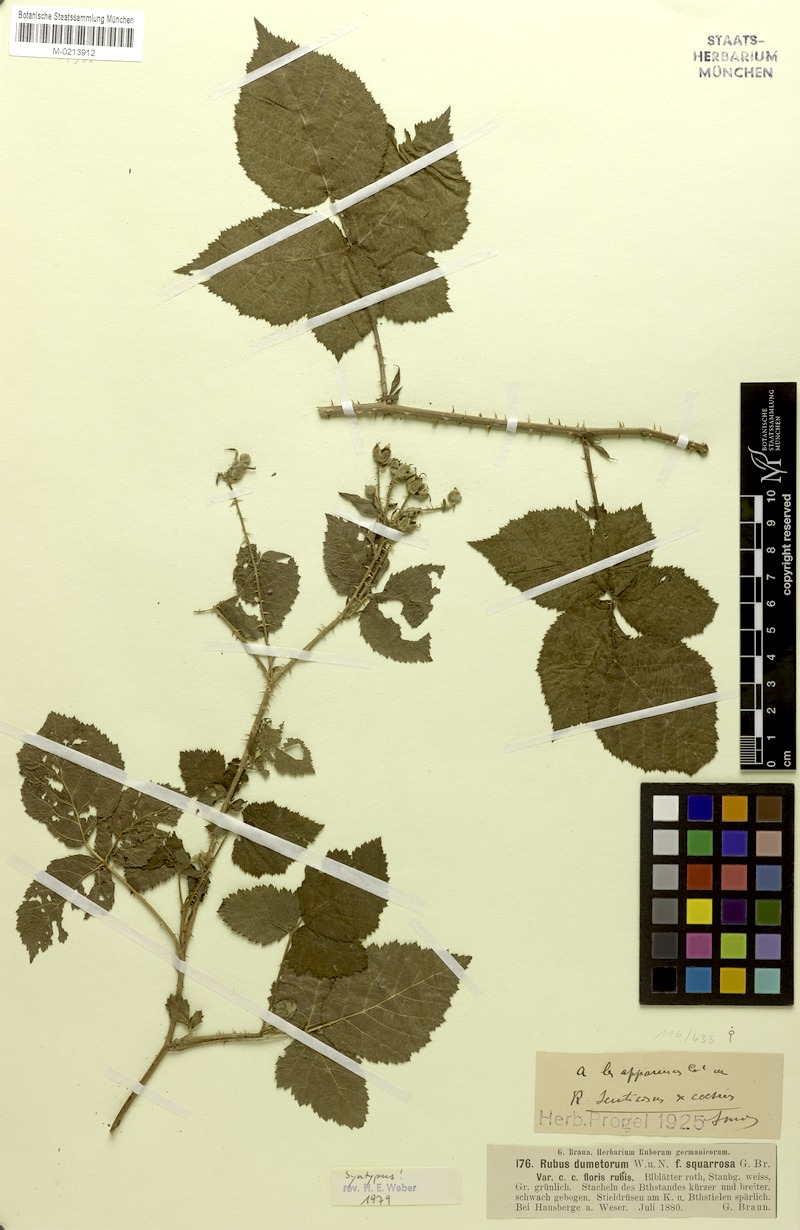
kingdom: Plantae
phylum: Tracheophyta
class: Magnoliopsida
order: Rosales
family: Rosaceae
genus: Rubus
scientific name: Rubus dumetorum
